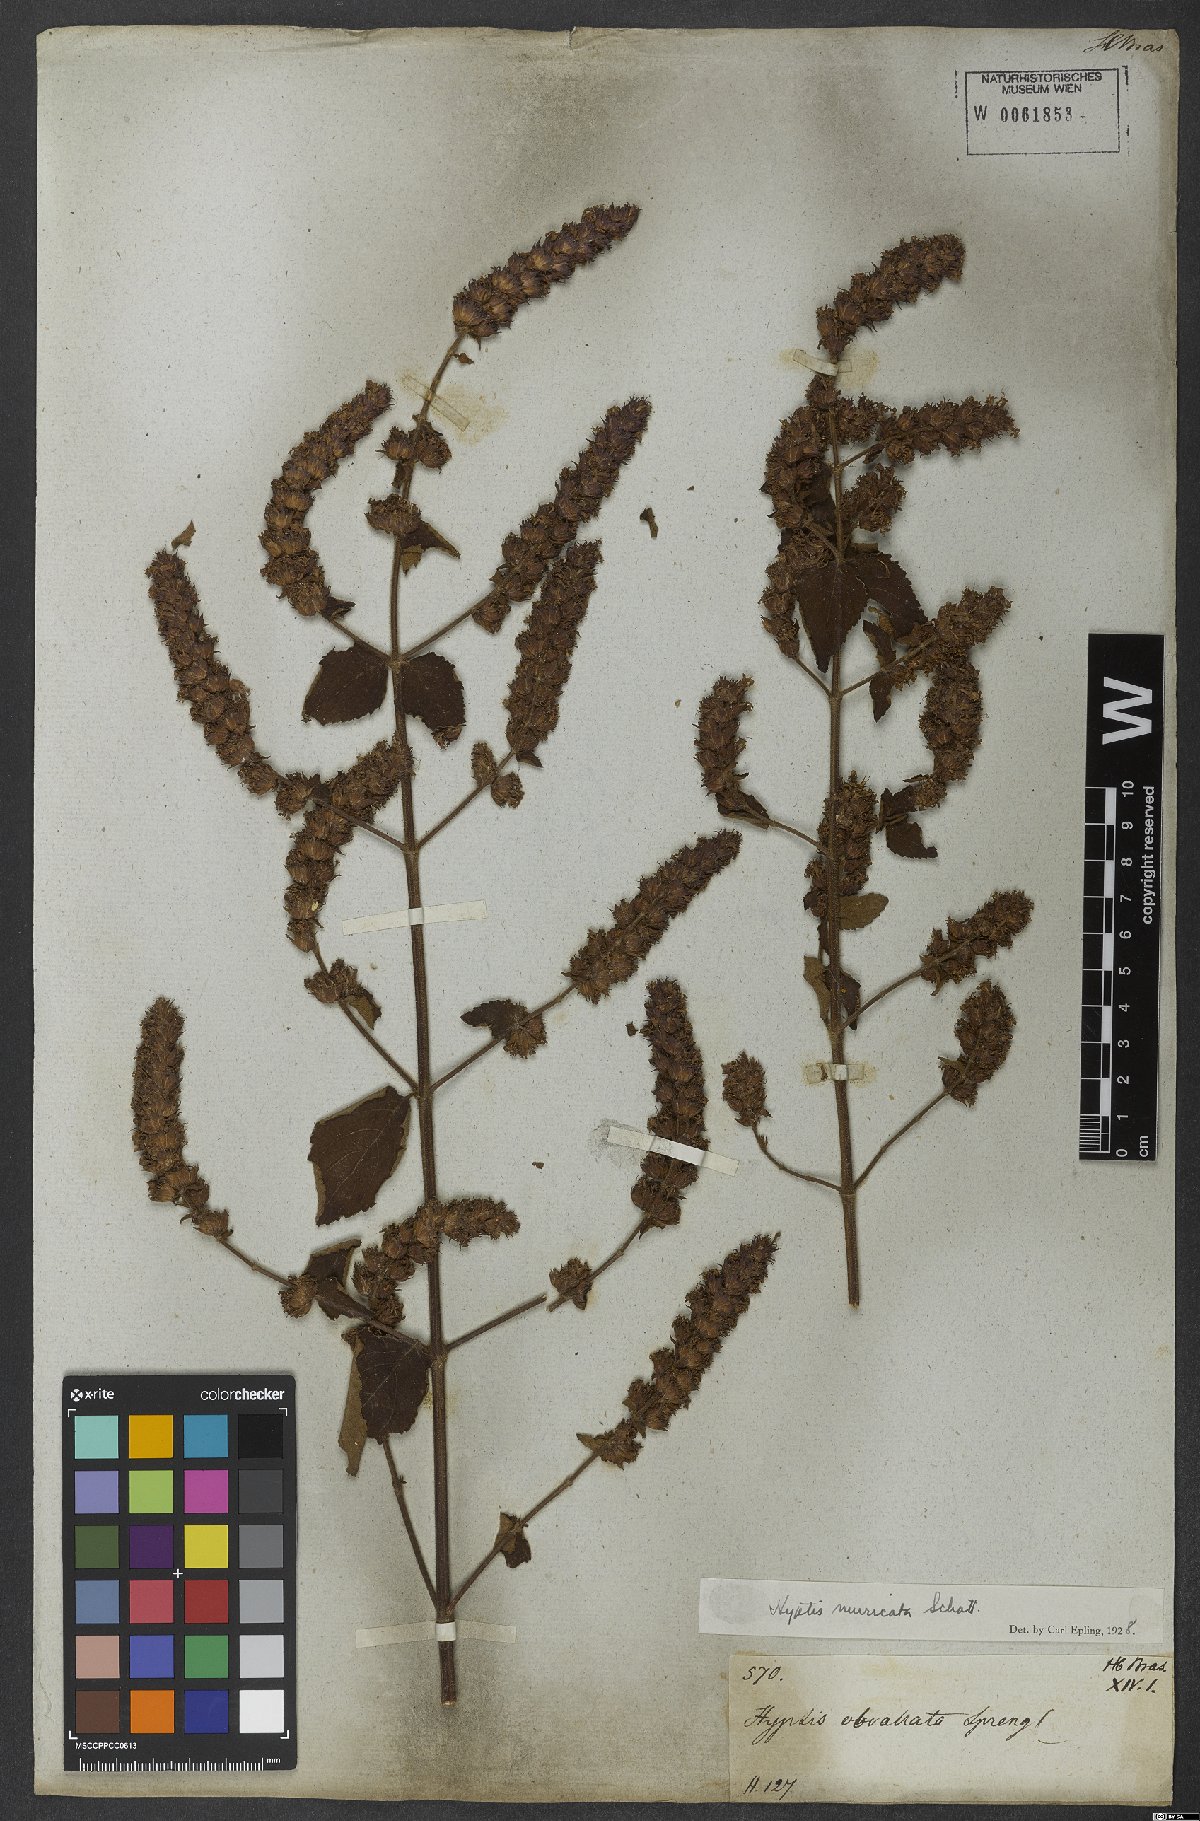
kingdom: Plantae
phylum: Tracheophyta
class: Magnoliopsida
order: Lamiales
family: Lamiaceae
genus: Cantinoa
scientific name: Cantinoa muricata
